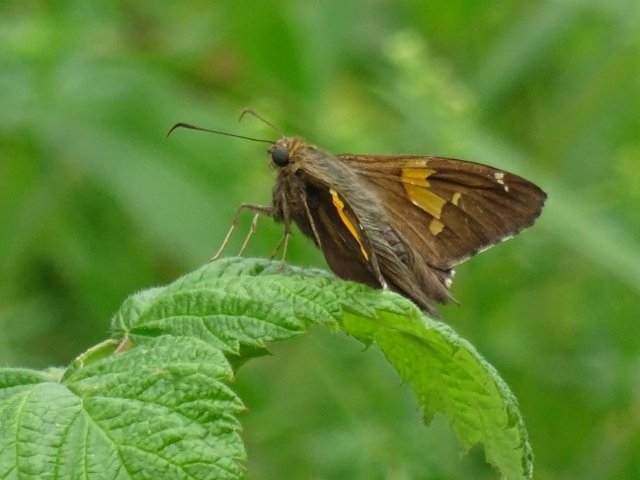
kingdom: Animalia
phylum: Arthropoda
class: Insecta
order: Lepidoptera
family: Hesperiidae
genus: Epargyreus
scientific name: Epargyreus clarus
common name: Silver-spotted Skipper
